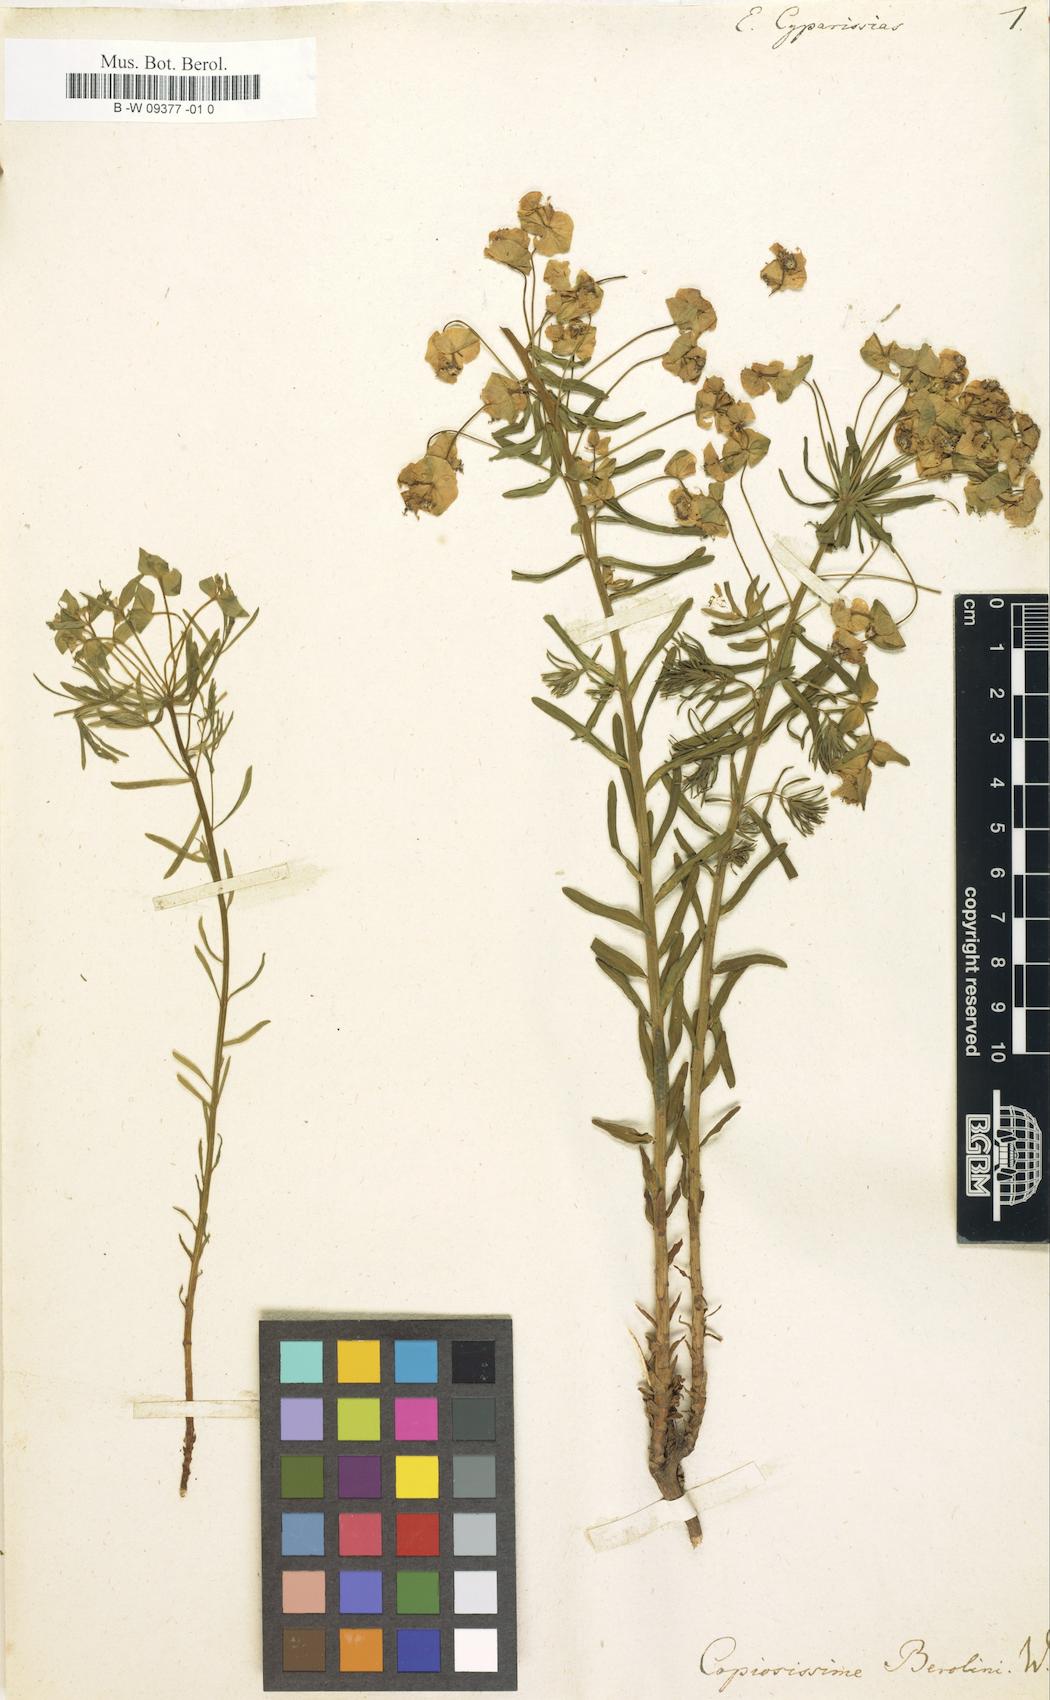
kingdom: Plantae
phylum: Tracheophyta
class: Magnoliopsida
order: Malpighiales
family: Euphorbiaceae
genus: Euphorbia
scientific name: Euphorbia cyparissias
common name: Cypress spurge
